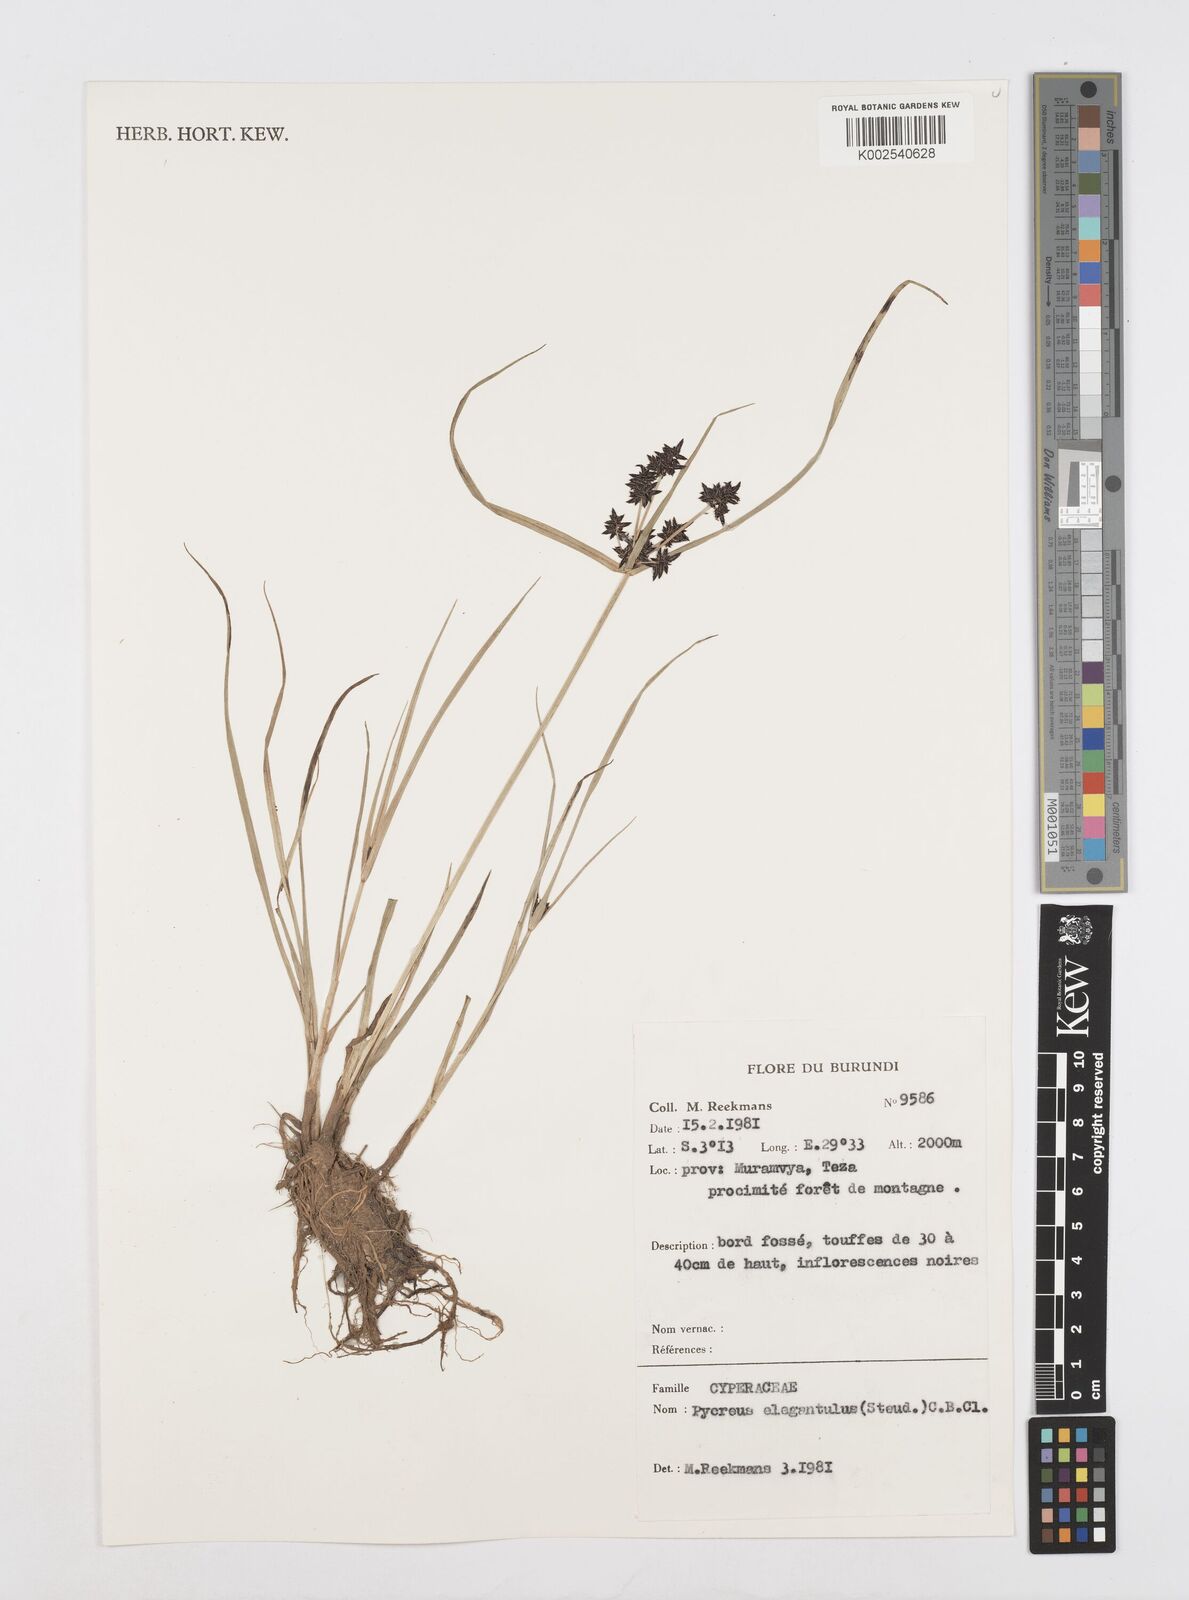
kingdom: Plantae
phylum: Tracheophyta
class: Liliopsida
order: Poales
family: Cyperaceae
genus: Cyperus
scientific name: Cyperus elegantulus
